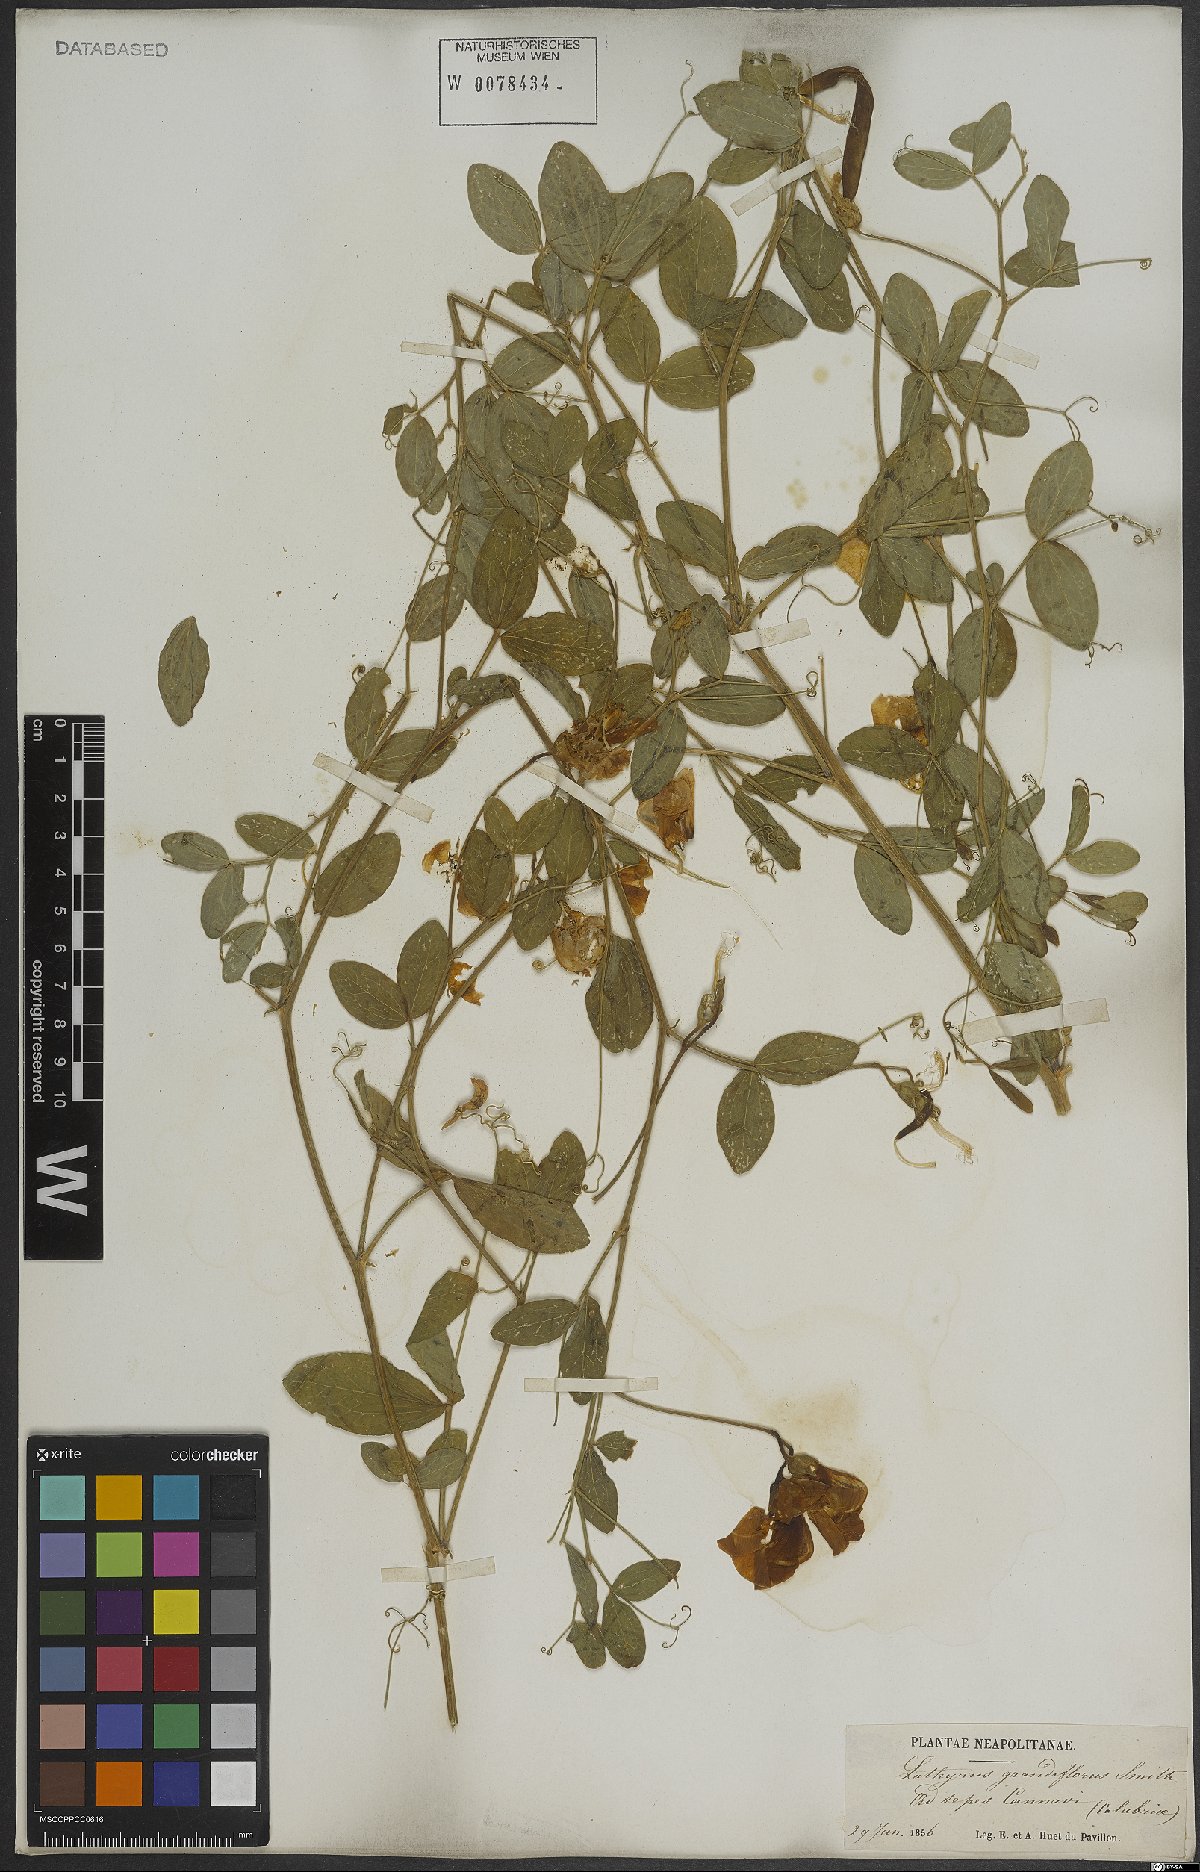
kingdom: Plantae
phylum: Tracheophyta
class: Magnoliopsida
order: Fabales
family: Fabaceae
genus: Lathyrus
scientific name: Lathyrus grandiflorus
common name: Two-flowered everlasting-pea
